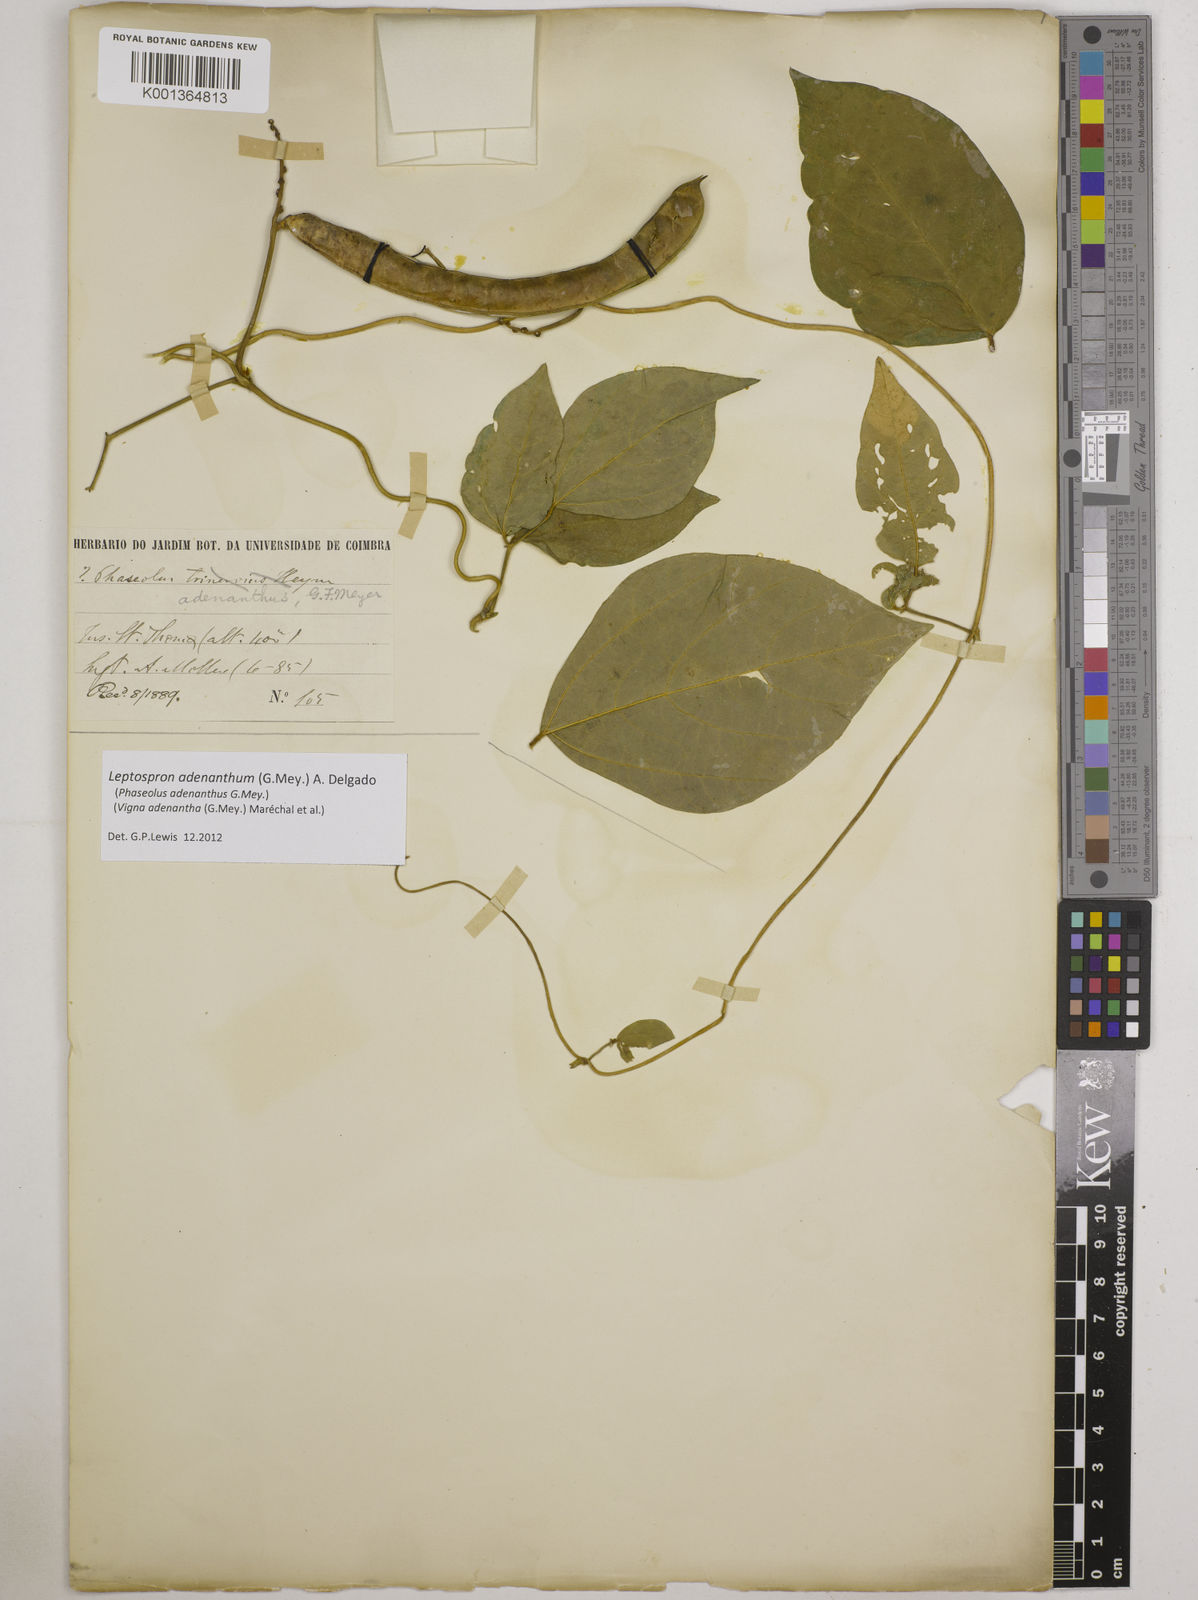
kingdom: Plantae
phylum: Tracheophyta
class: Magnoliopsida
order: Fabales
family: Fabaceae
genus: Leptospron
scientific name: Leptospron adenanthum
